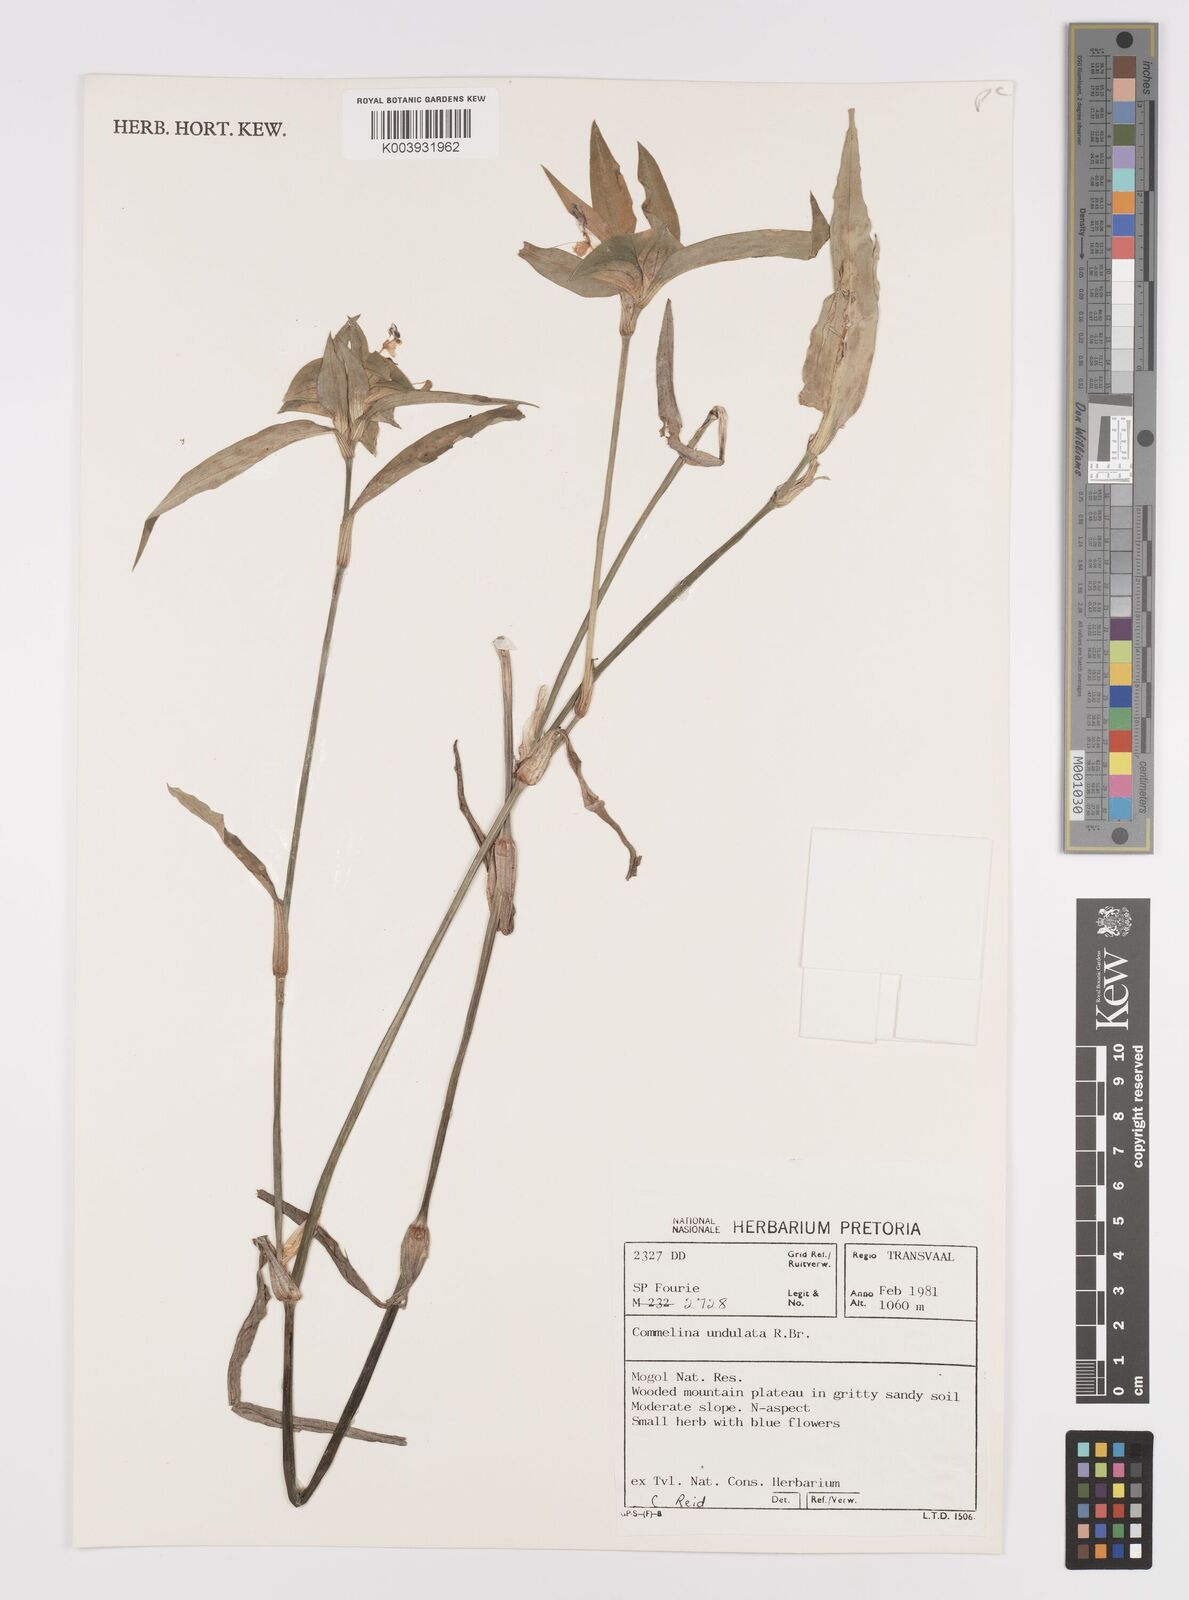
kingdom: Plantae
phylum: Tracheophyta
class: Liliopsida
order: Commelinales
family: Commelinaceae
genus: Commelina
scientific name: Commelina erecta
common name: Blousel blommetjie
